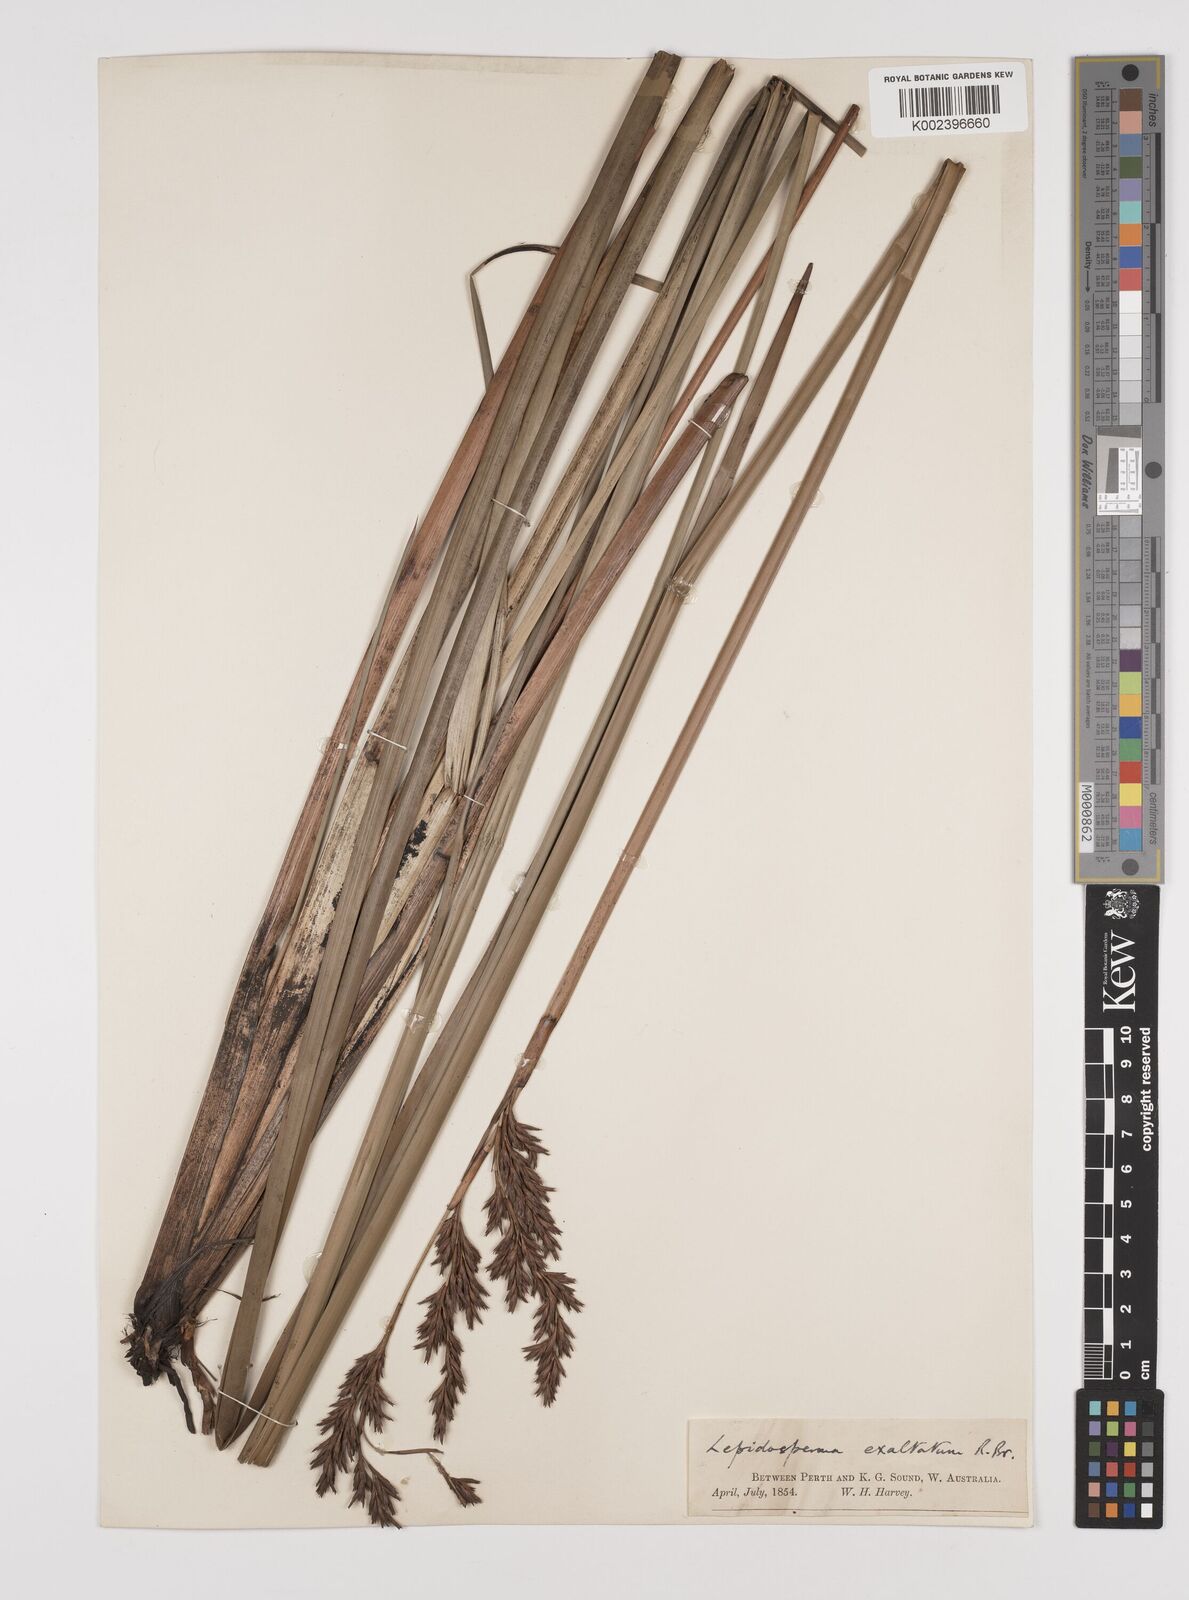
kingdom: Plantae
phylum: Tracheophyta
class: Liliopsida
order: Poales
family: Cyperaceae
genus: Lepidosperma
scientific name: Lepidosperma longitudinale
